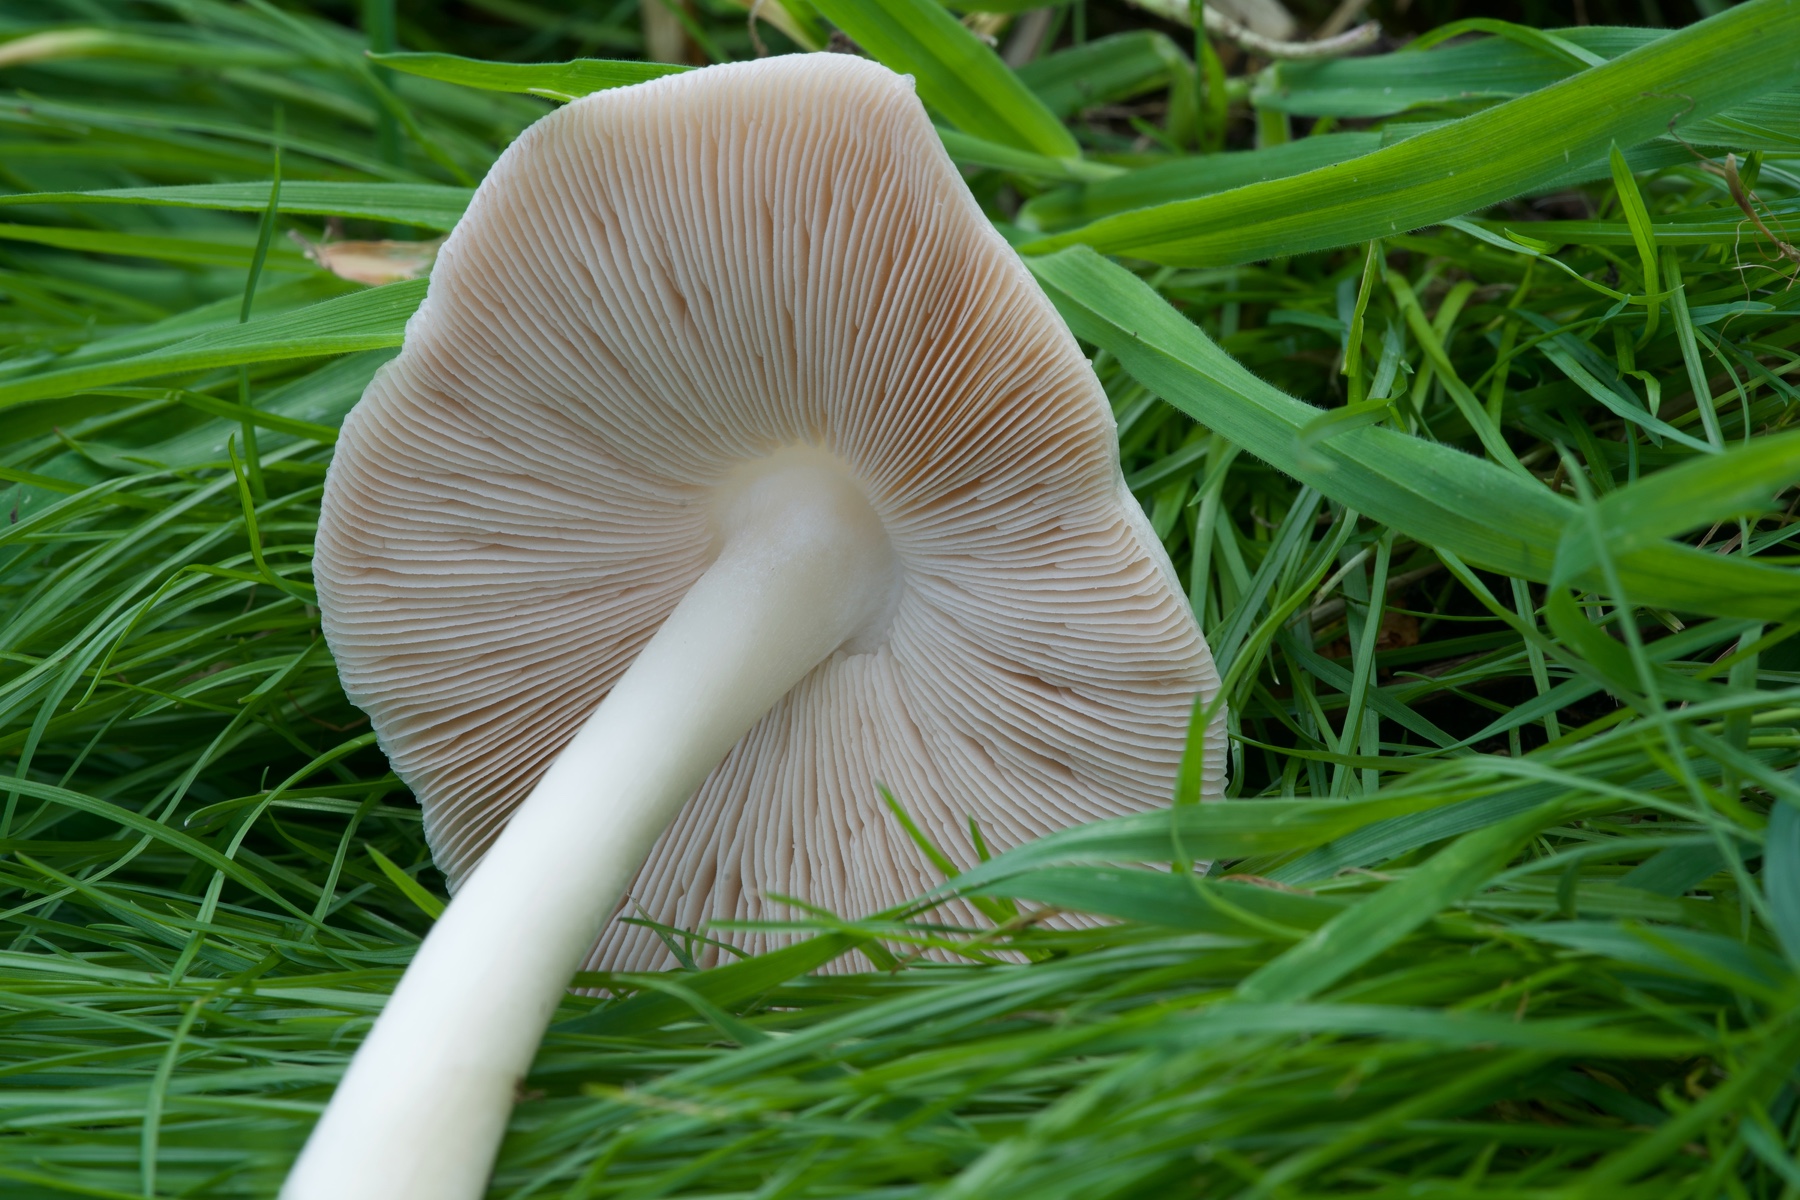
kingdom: Fungi
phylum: Basidiomycota
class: Agaricomycetes
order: Agaricales
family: Pluteaceae
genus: Volvopluteus
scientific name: Volvopluteus gloiocephalus
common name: høj posesvamp
